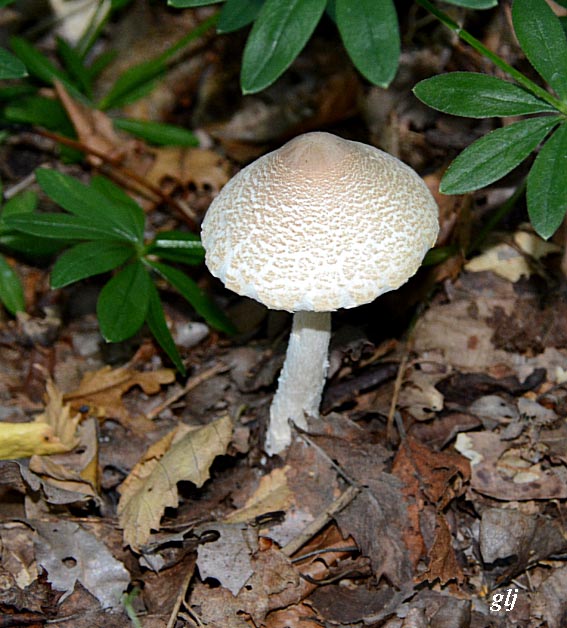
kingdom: Fungi
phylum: Basidiomycota
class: Agaricomycetes
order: Agaricales
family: Agaricaceae
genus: Lepiota
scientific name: Lepiota clypeolaria
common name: flosset parasolhat
